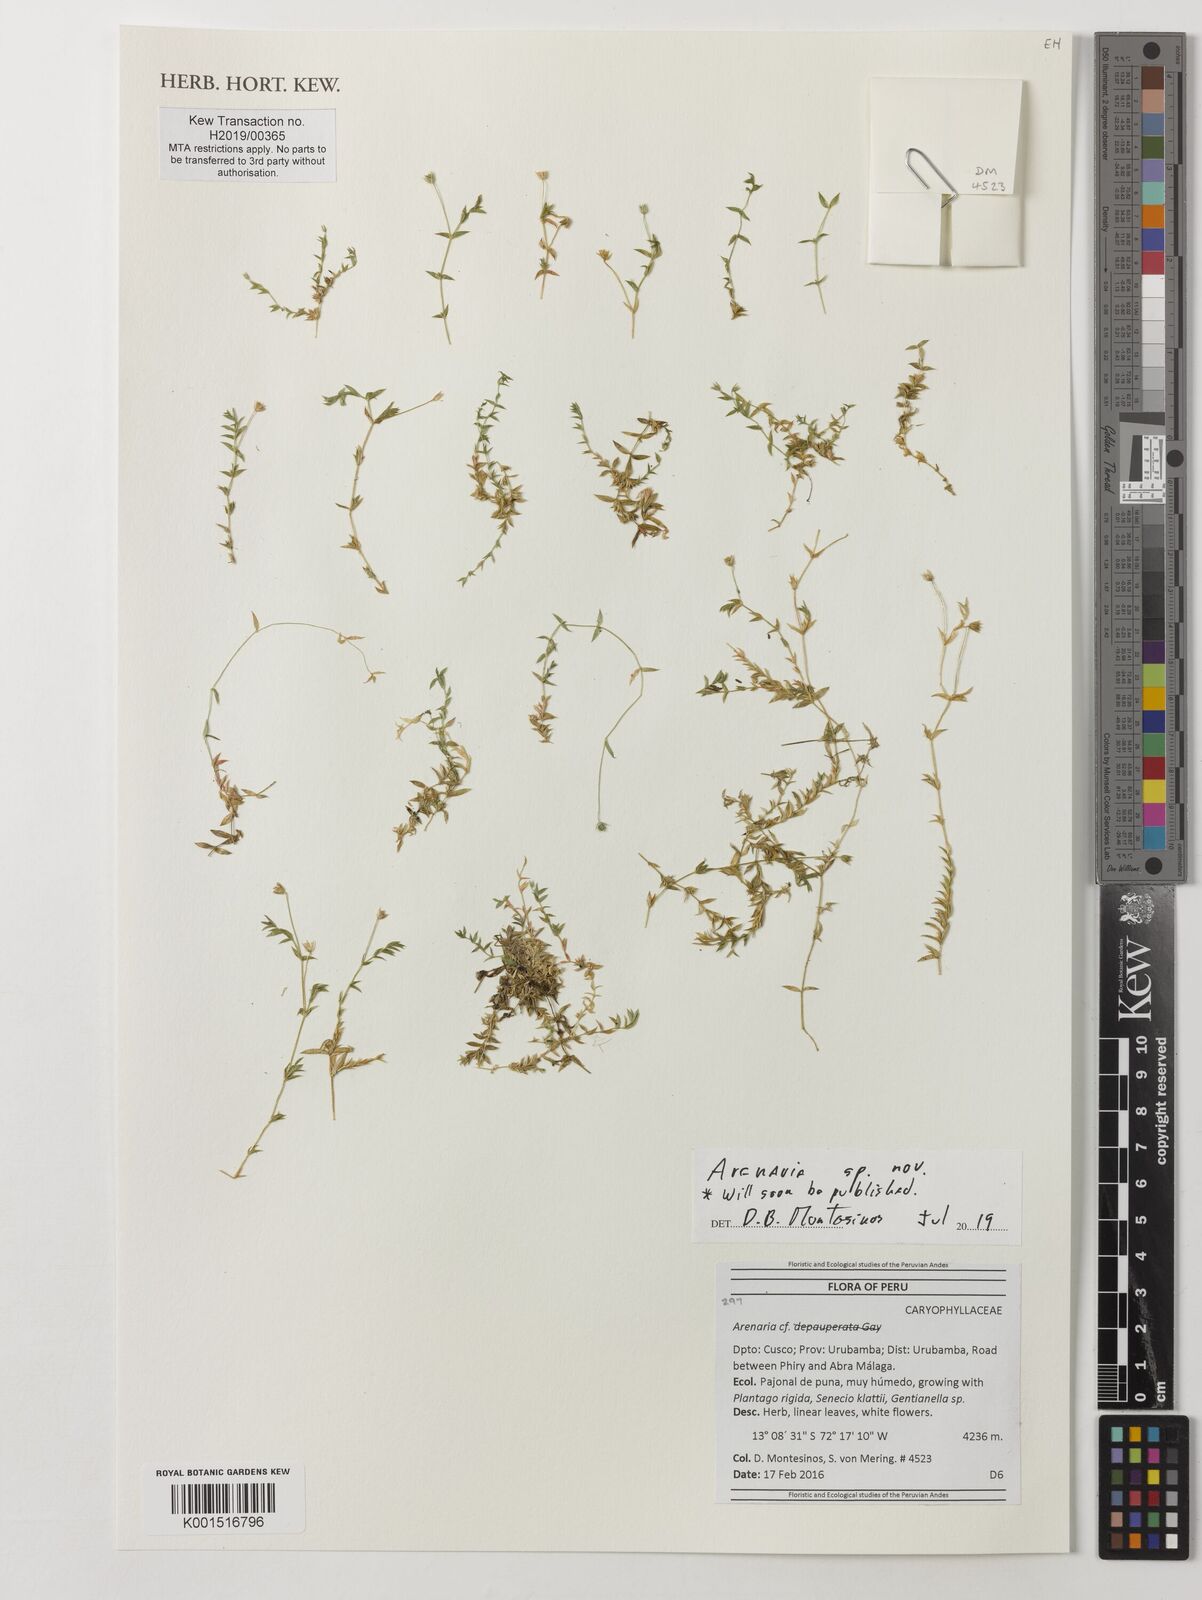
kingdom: Plantae
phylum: Tracheophyta
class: Magnoliopsida
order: Caryophyllales
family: Caryophyllaceae
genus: Arenaria
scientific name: Arenaria
